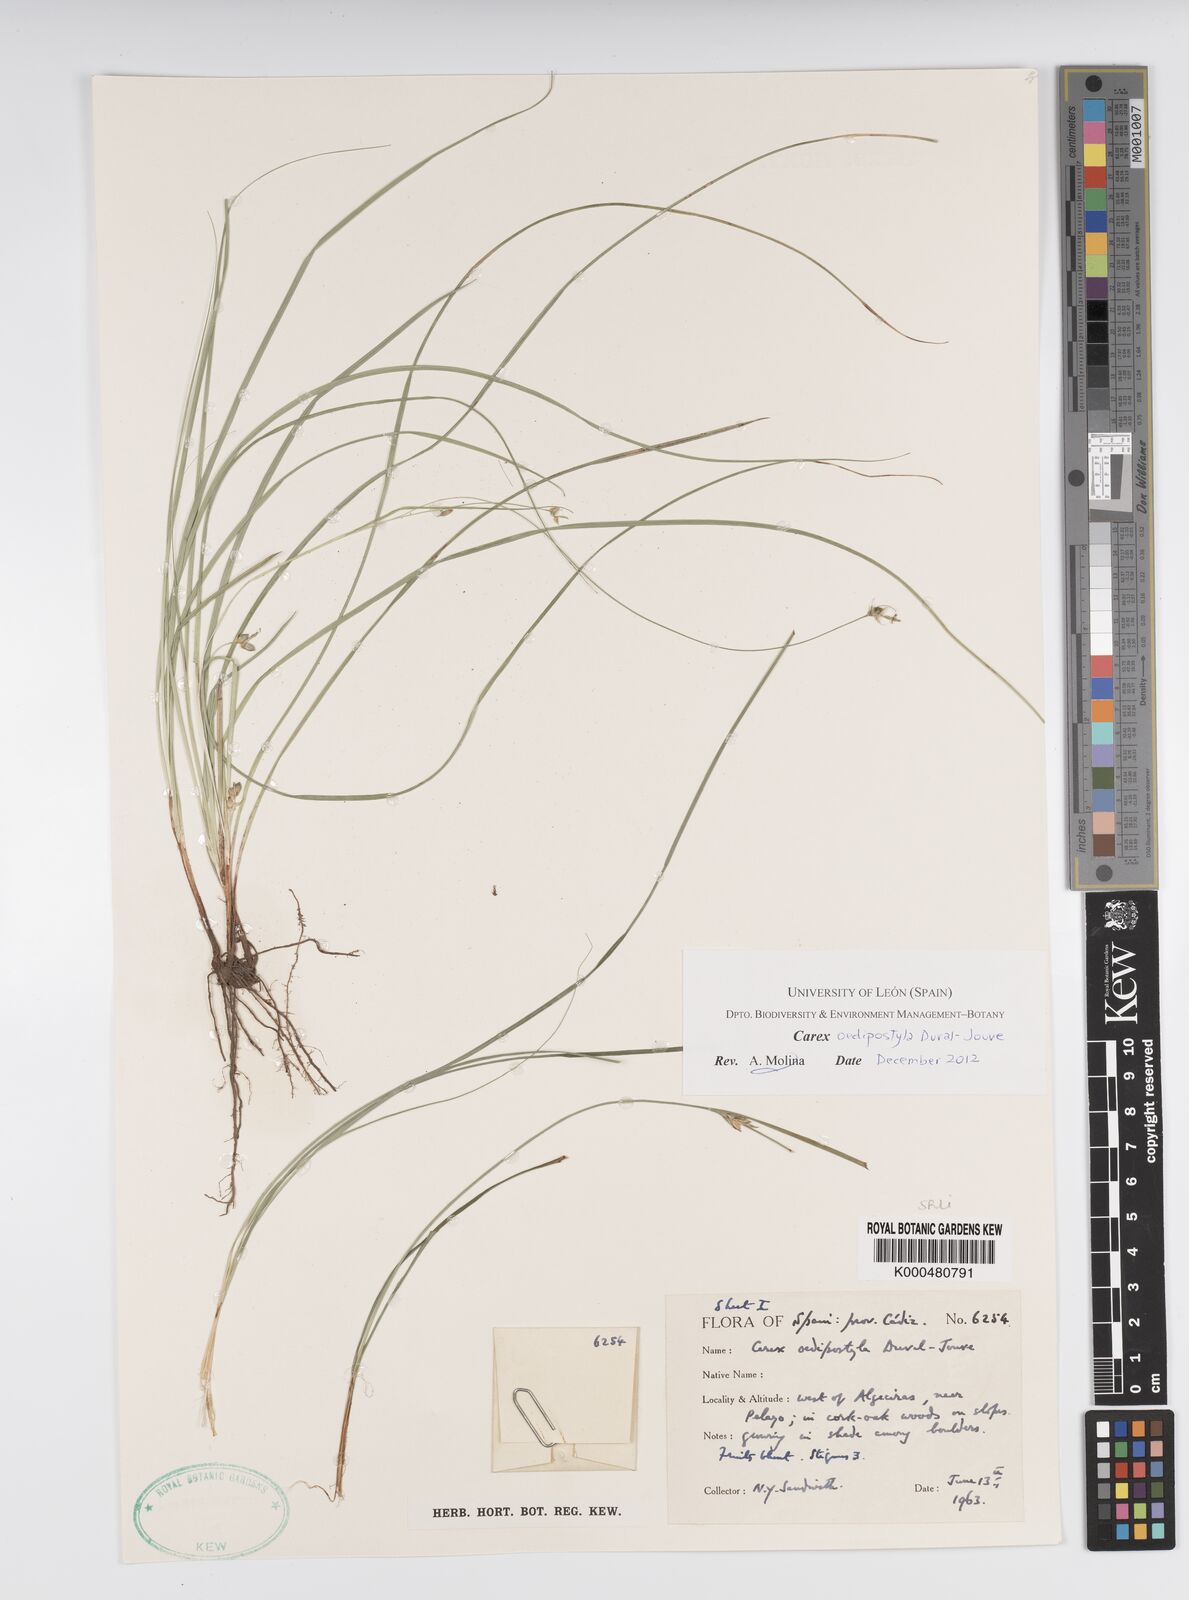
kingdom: Plantae
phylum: Tracheophyta
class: Liliopsida
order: Poales
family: Cyperaceae
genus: Carex
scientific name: Carex oedipostyla
